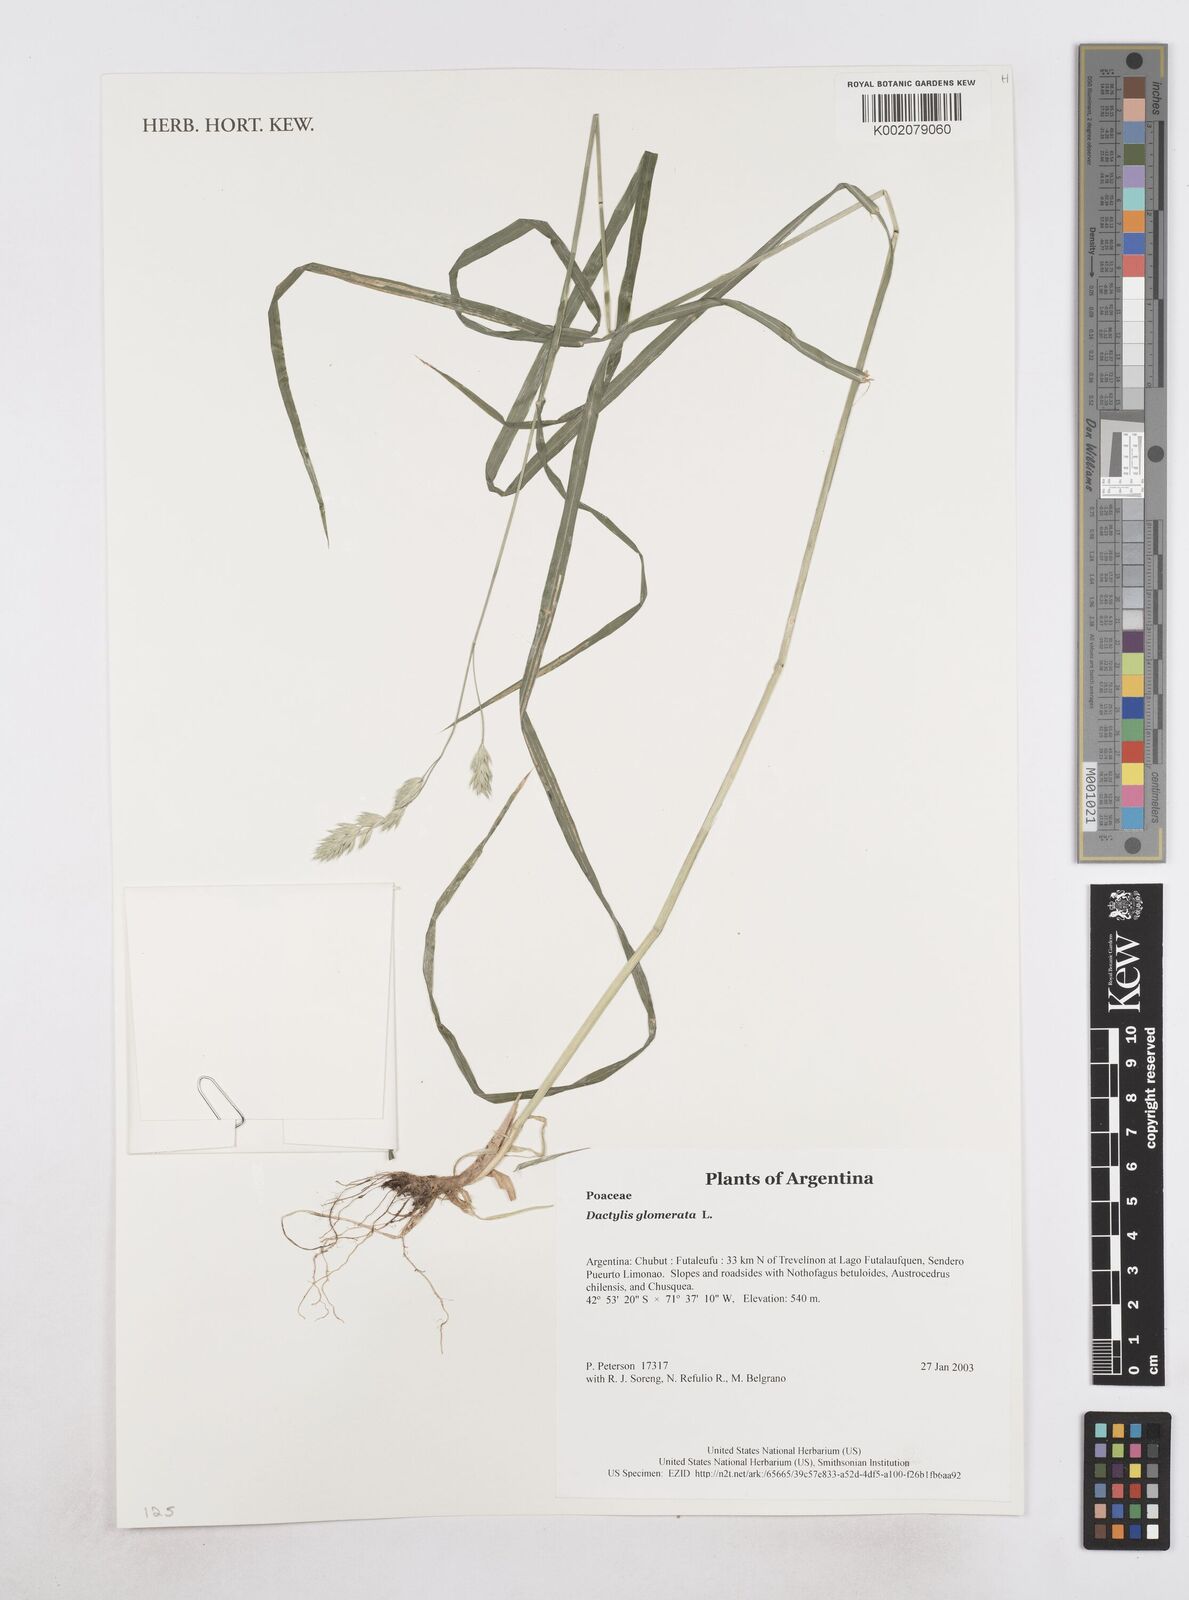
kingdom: Plantae
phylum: Tracheophyta
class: Liliopsida
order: Poales
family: Poaceae
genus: Dactylis
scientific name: Dactylis glomerata
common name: Orchardgrass
